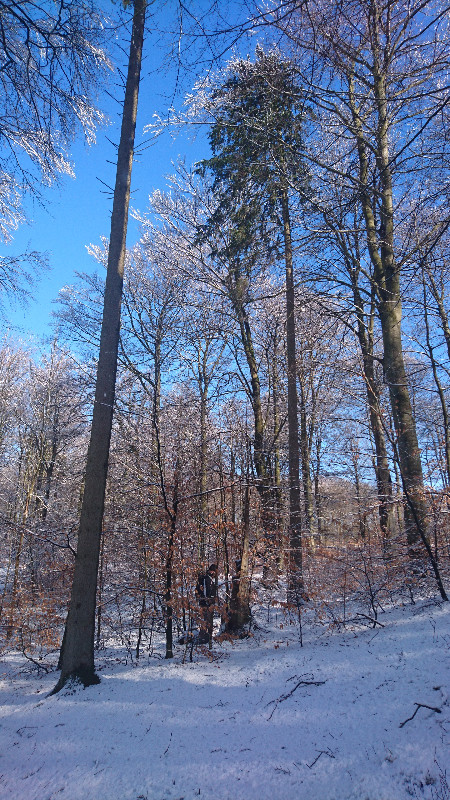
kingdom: Fungi
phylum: Basidiomycota
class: Agaricomycetes
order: Gloeophyllales
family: Gloeophyllaceae
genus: Gloeophyllum
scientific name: Gloeophyllum odoratum
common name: duftende korkhat
